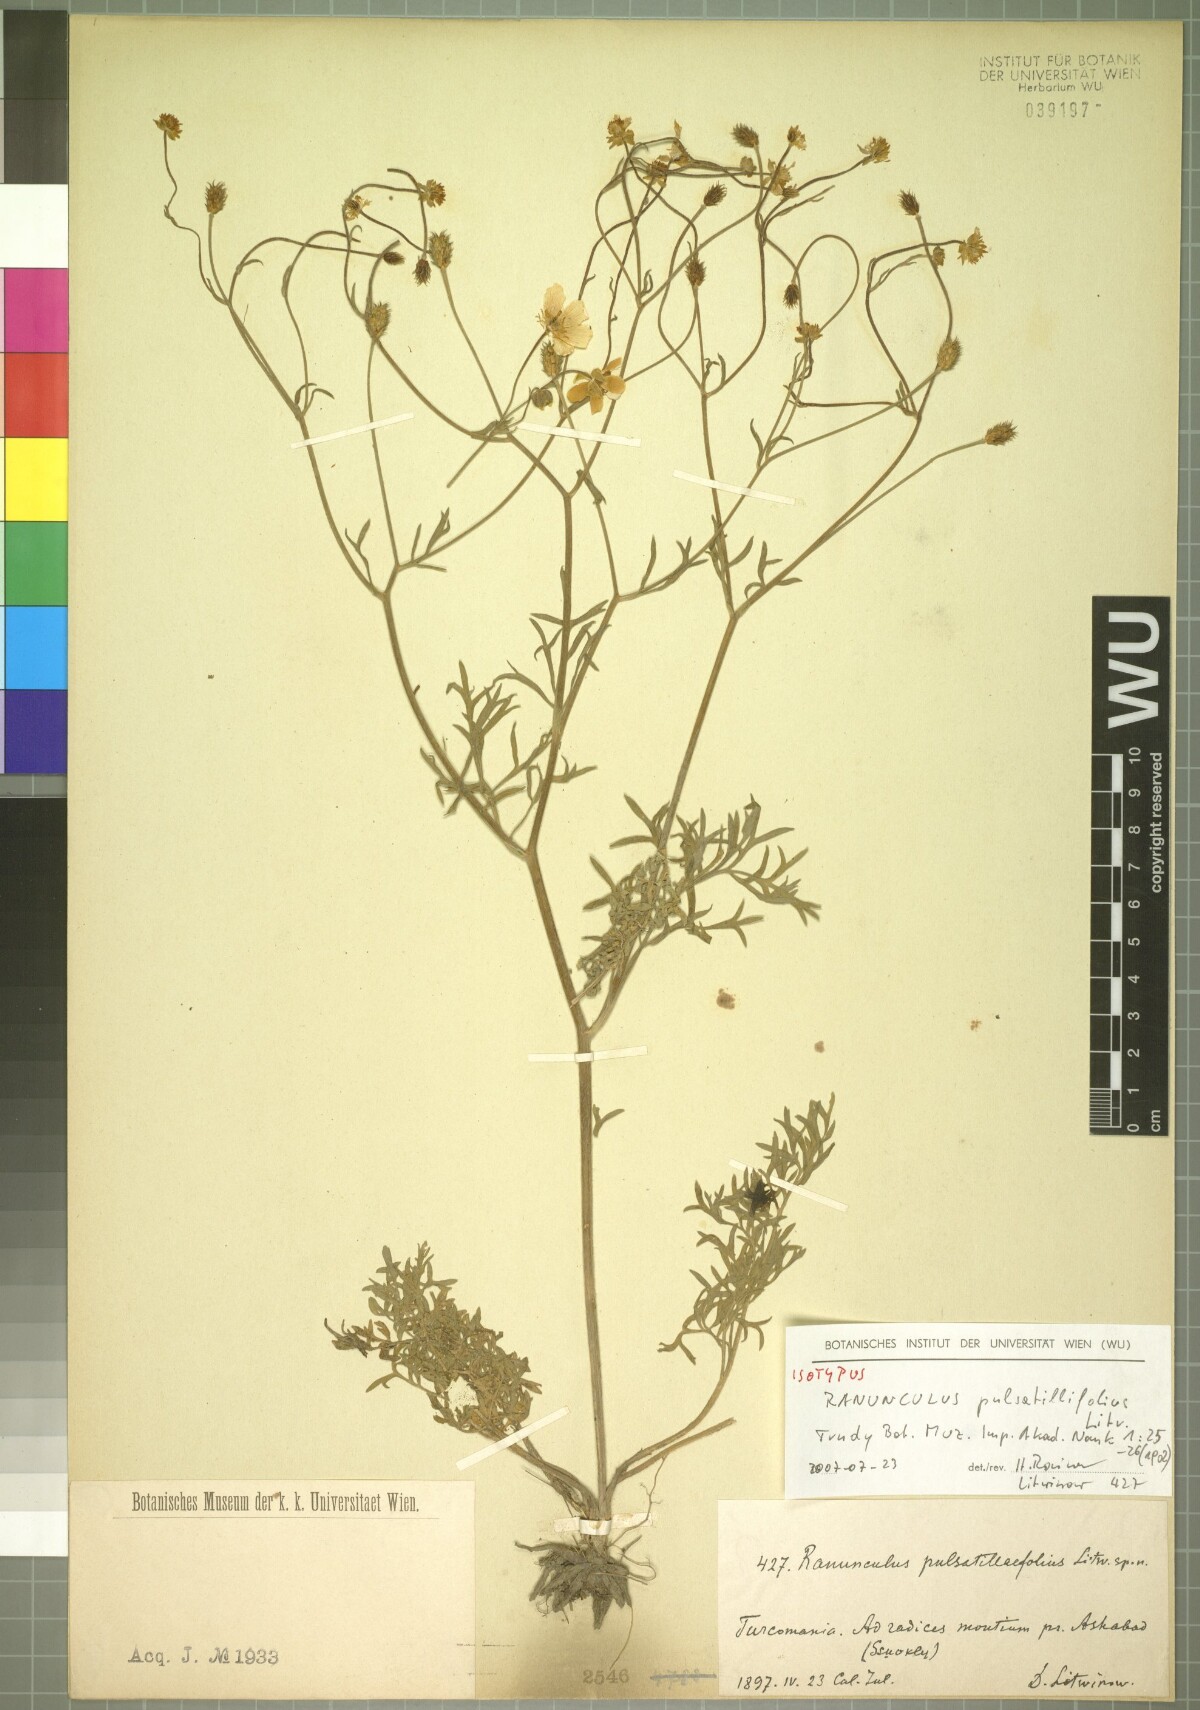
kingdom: Plantae
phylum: Tracheophyta
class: Magnoliopsida
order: Ranunculales
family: Ranunculaceae
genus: Ranunculus
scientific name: Ranunculus pulsatillifolius
